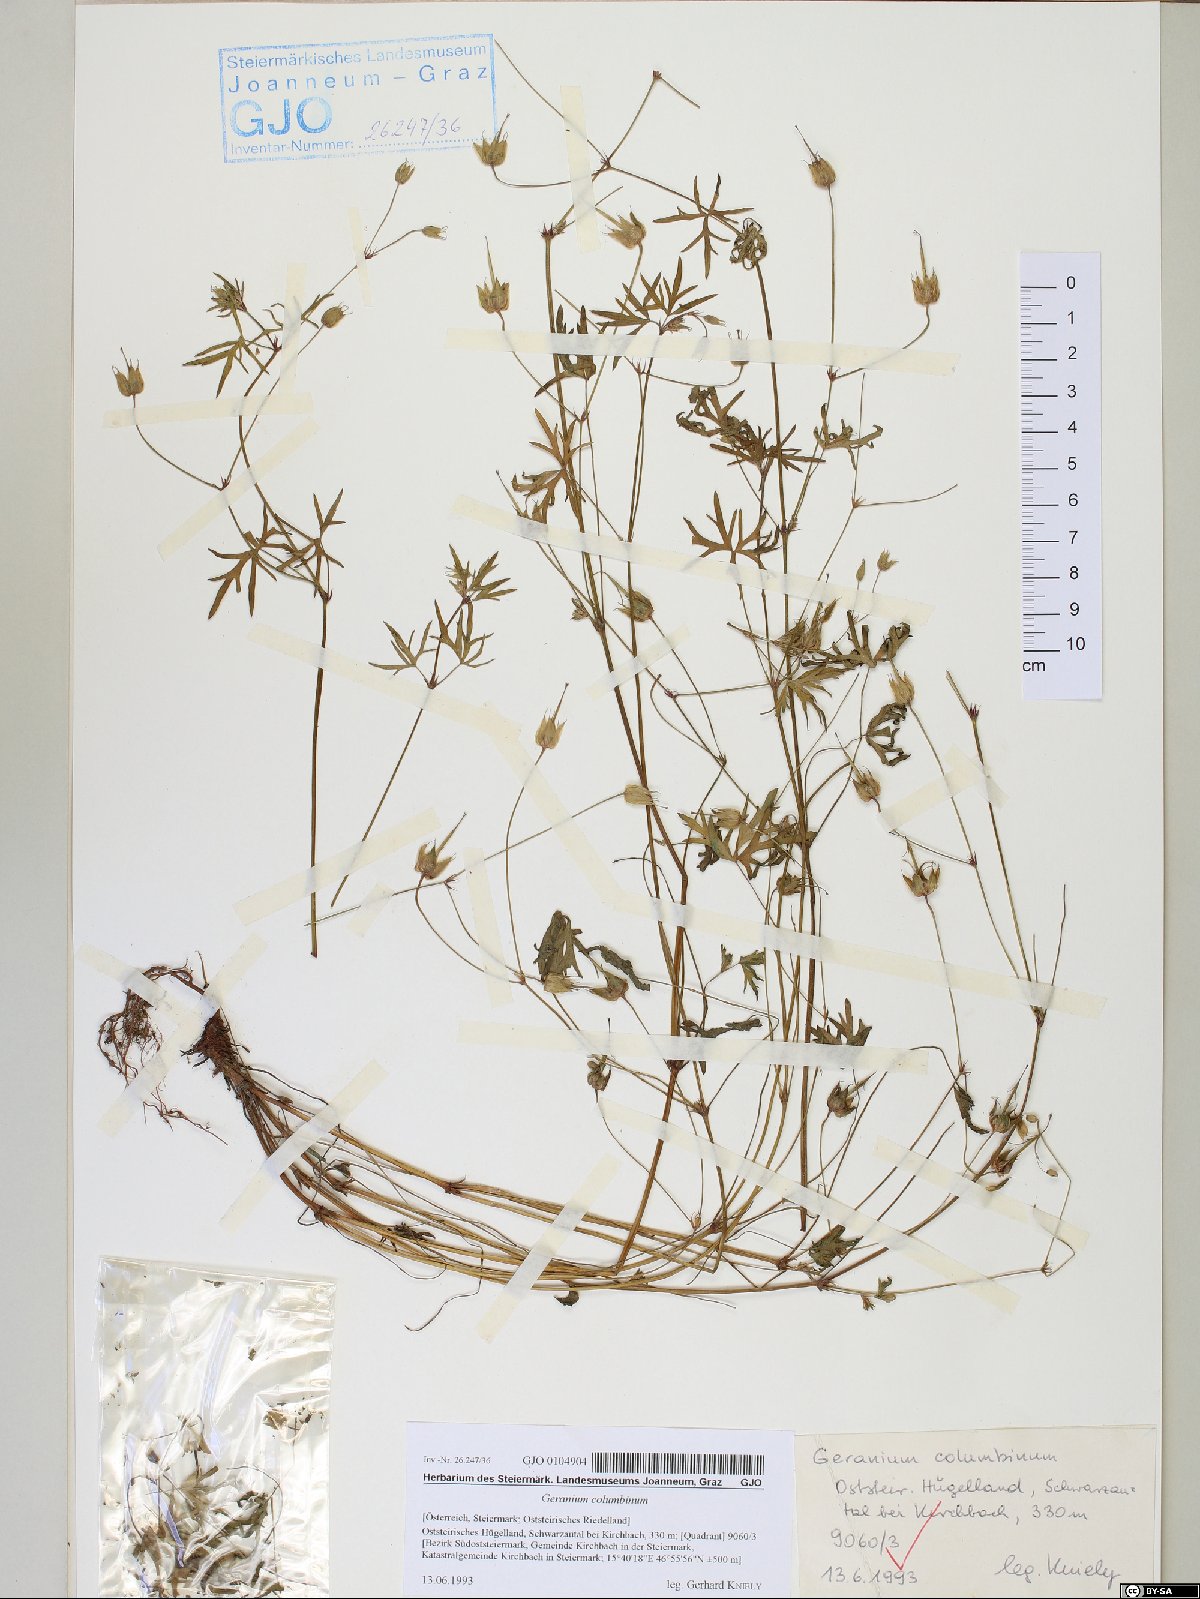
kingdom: Plantae
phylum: Tracheophyta
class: Magnoliopsida
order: Geraniales
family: Geraniaceae
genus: Geranium
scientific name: Geranium columbinum
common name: Long-stalked crane's-bill
